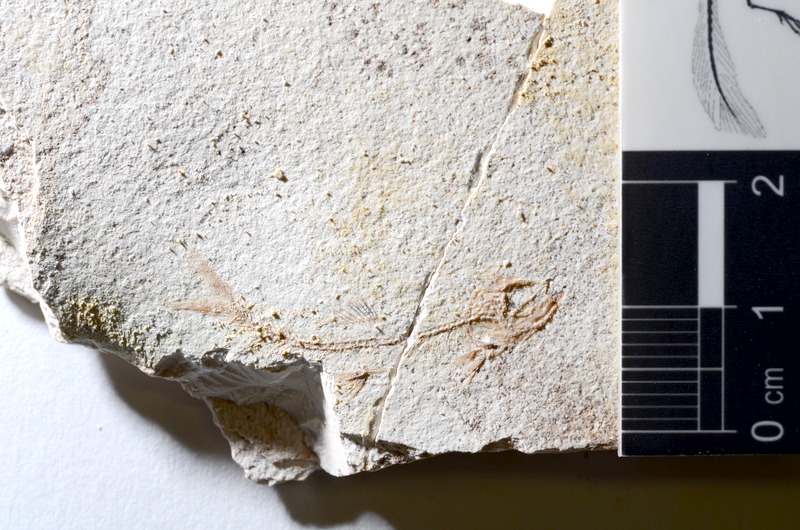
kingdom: Animalia
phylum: Chordata
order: Salmoniformes
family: Orthogonikleithridae
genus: Orthogonikleithrus
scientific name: Orthogonikleithrus hoelli
